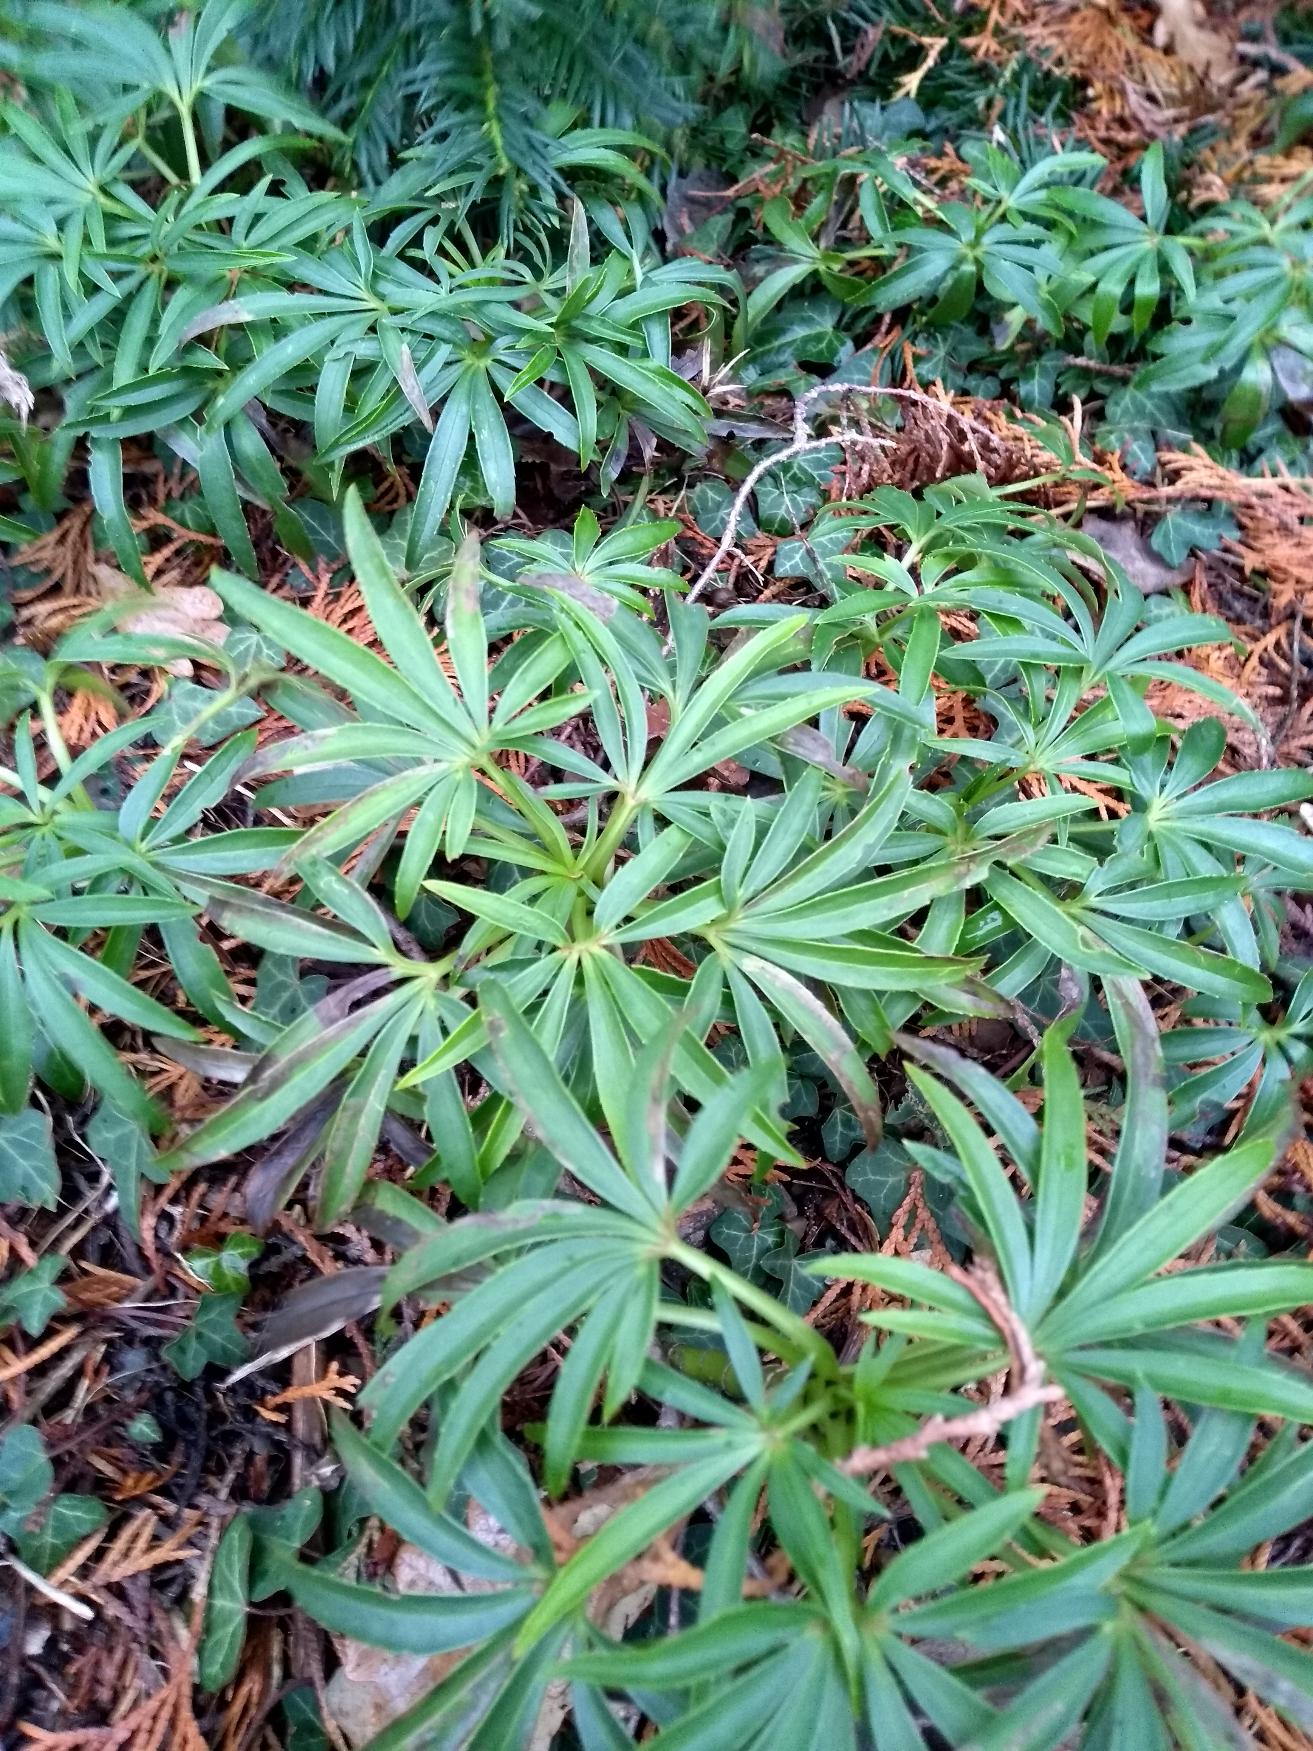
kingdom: Plantae
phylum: Tracheophyta
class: Magnoliopsida
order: Ranunculales
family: Ranunculaceae
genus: Helleborus
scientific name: Helleborus foetidus
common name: Stinkende julerose
